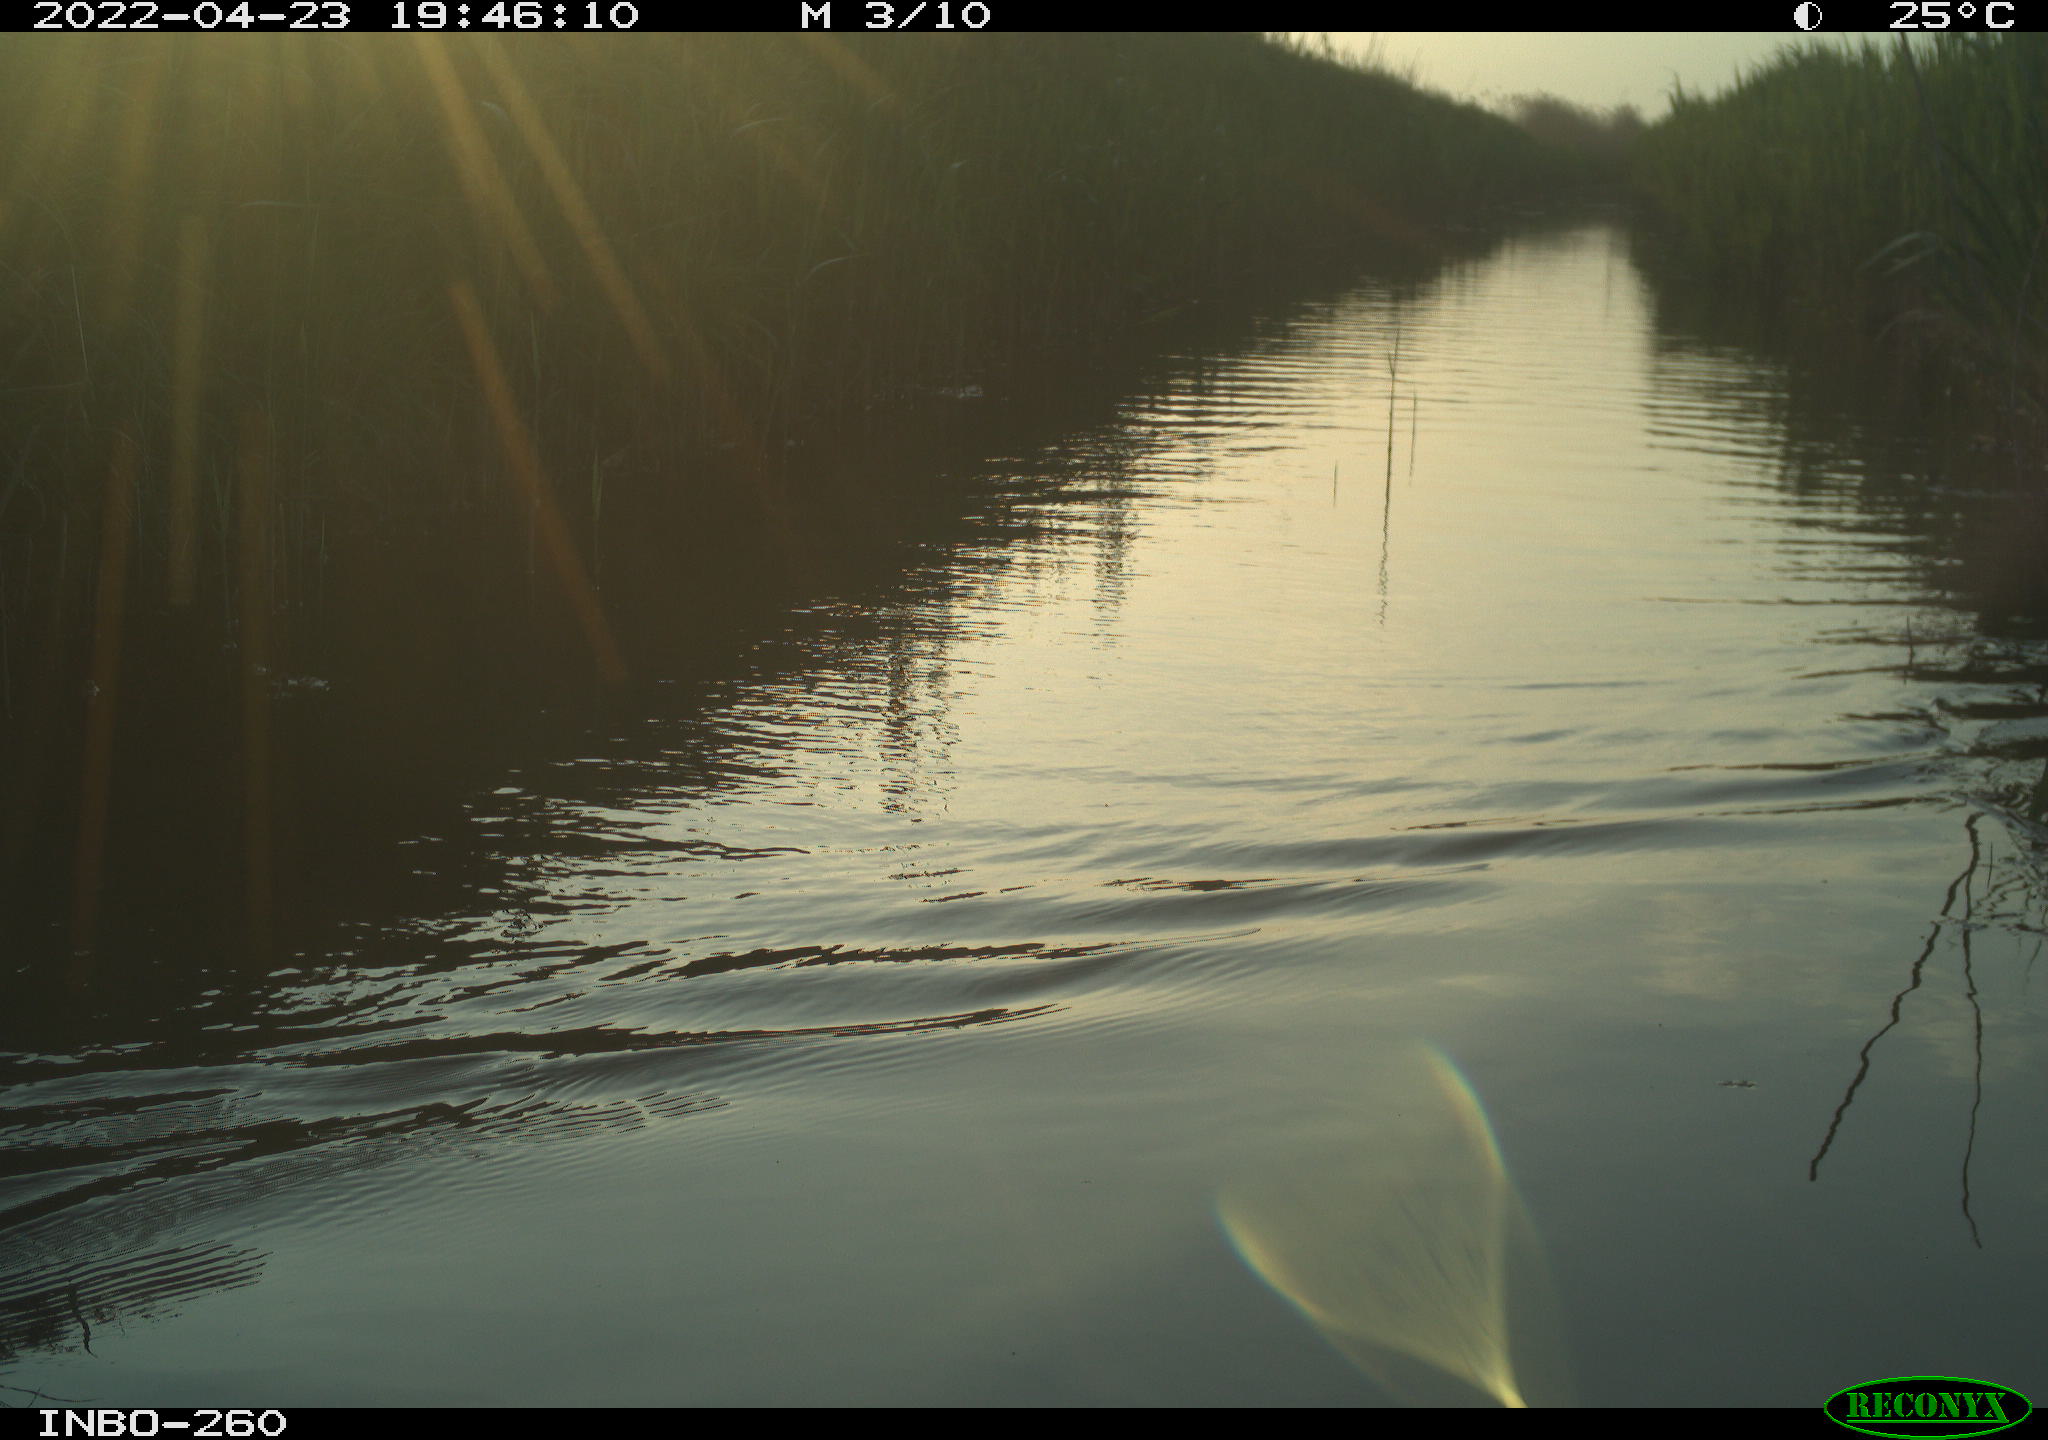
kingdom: Animalia
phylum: Chordata
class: Aves
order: Gruiformes
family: Rallidae
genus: Fulica
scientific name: Fulica atra
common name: Eurasian coot
